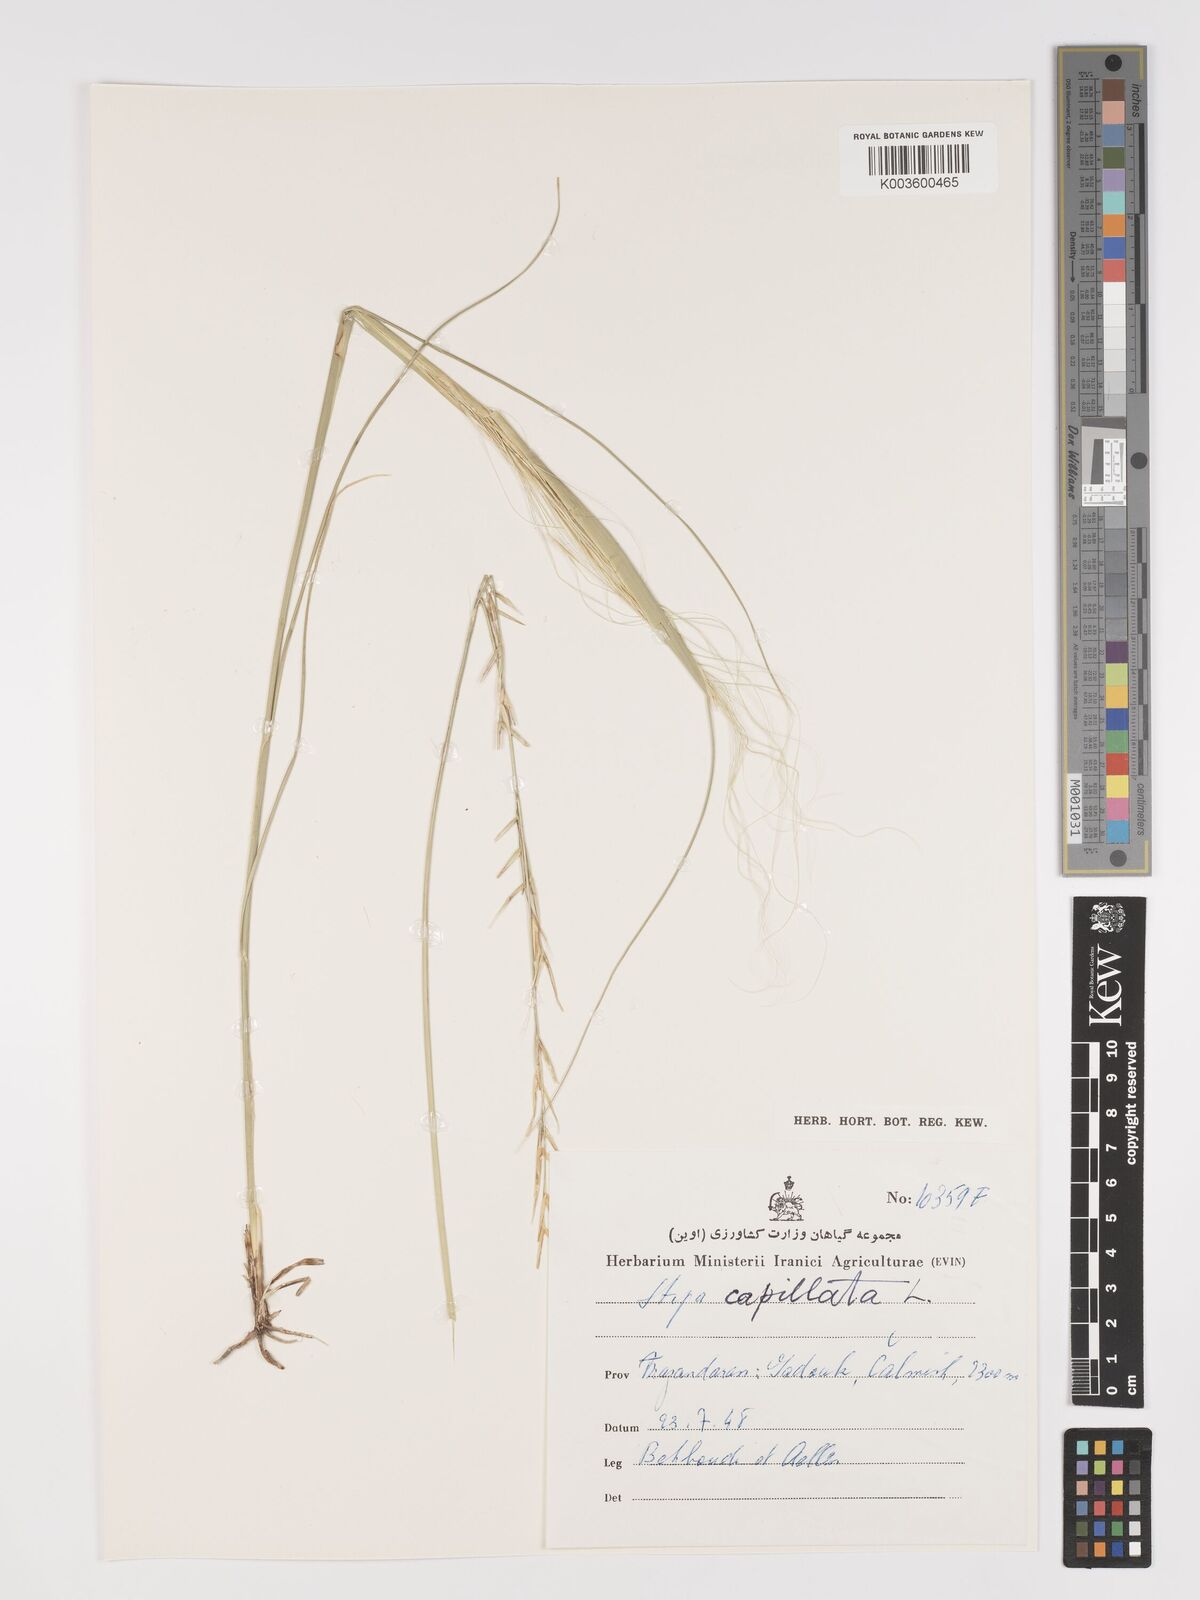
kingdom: Plantae
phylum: Tracheophyta
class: Liliopsida
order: Poales
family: Poaceae
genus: Stipa
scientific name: Stipa capillata
